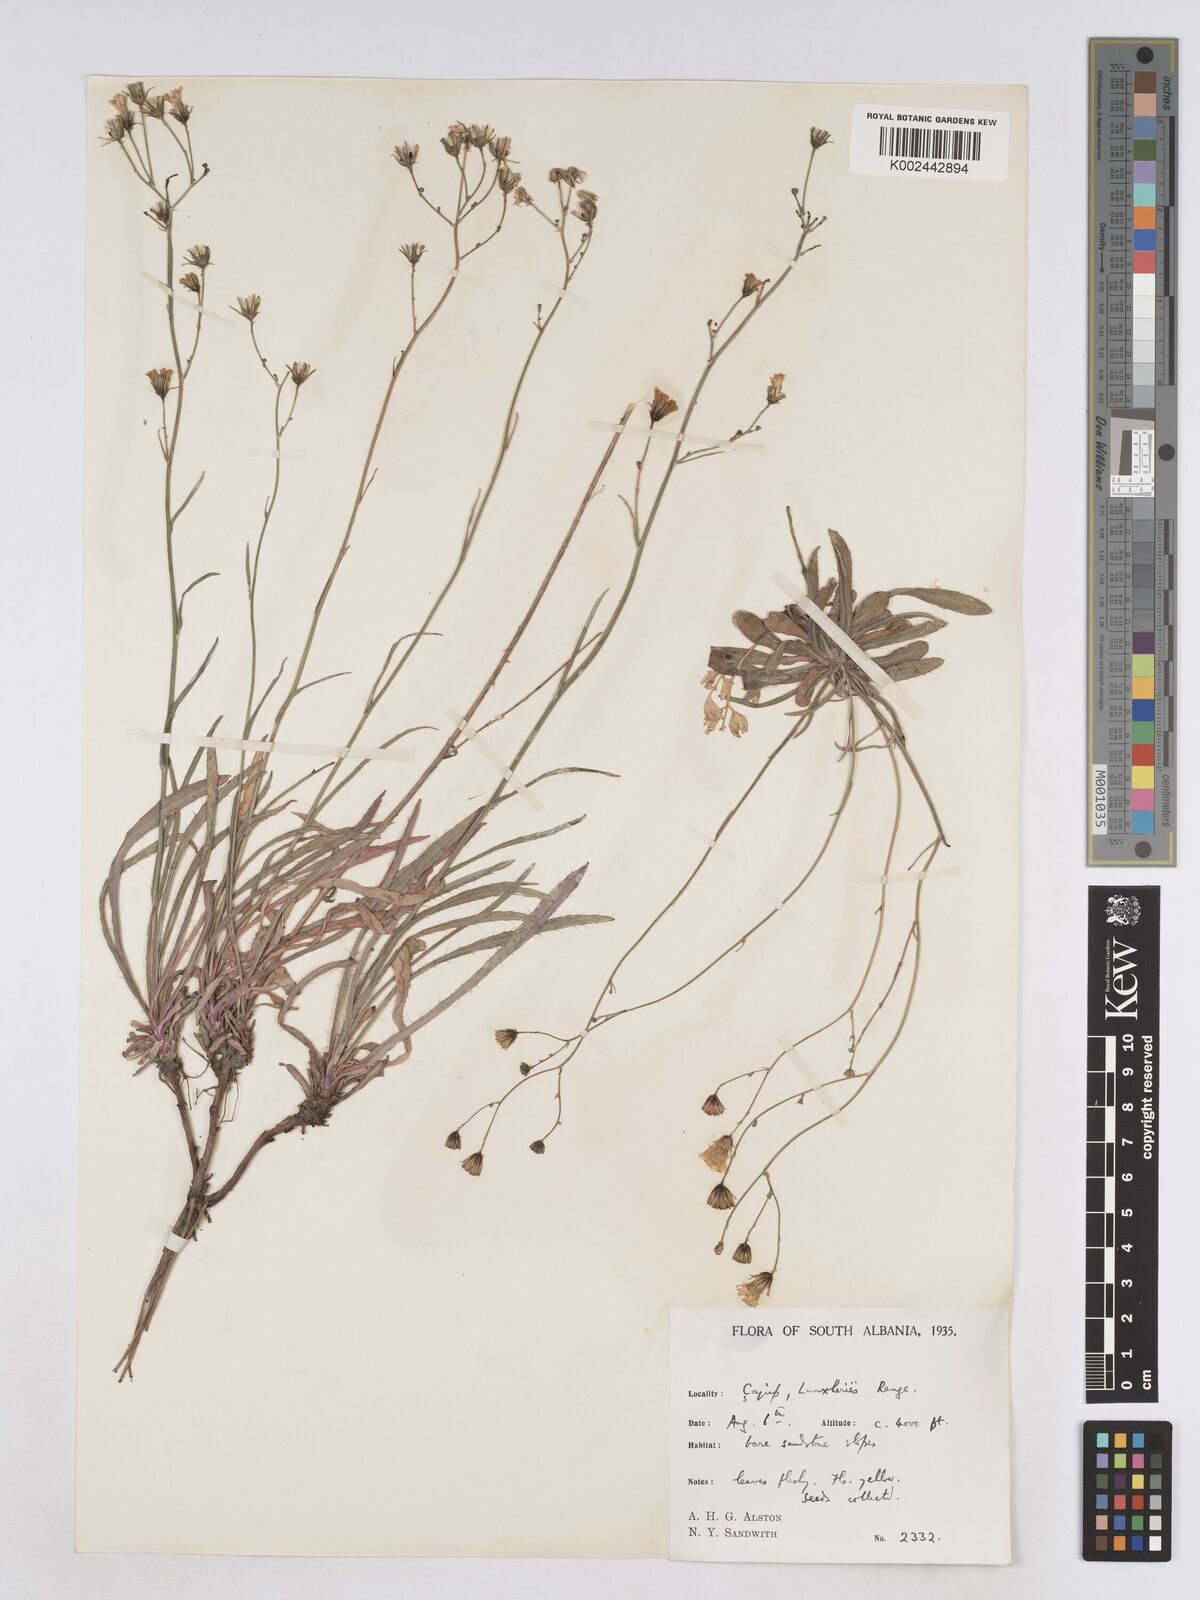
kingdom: Plantae
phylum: Tracheophyta
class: Magnoliopsida
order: Asterales
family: Asteraceae
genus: Pilosella
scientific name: Pilosella pavichii
